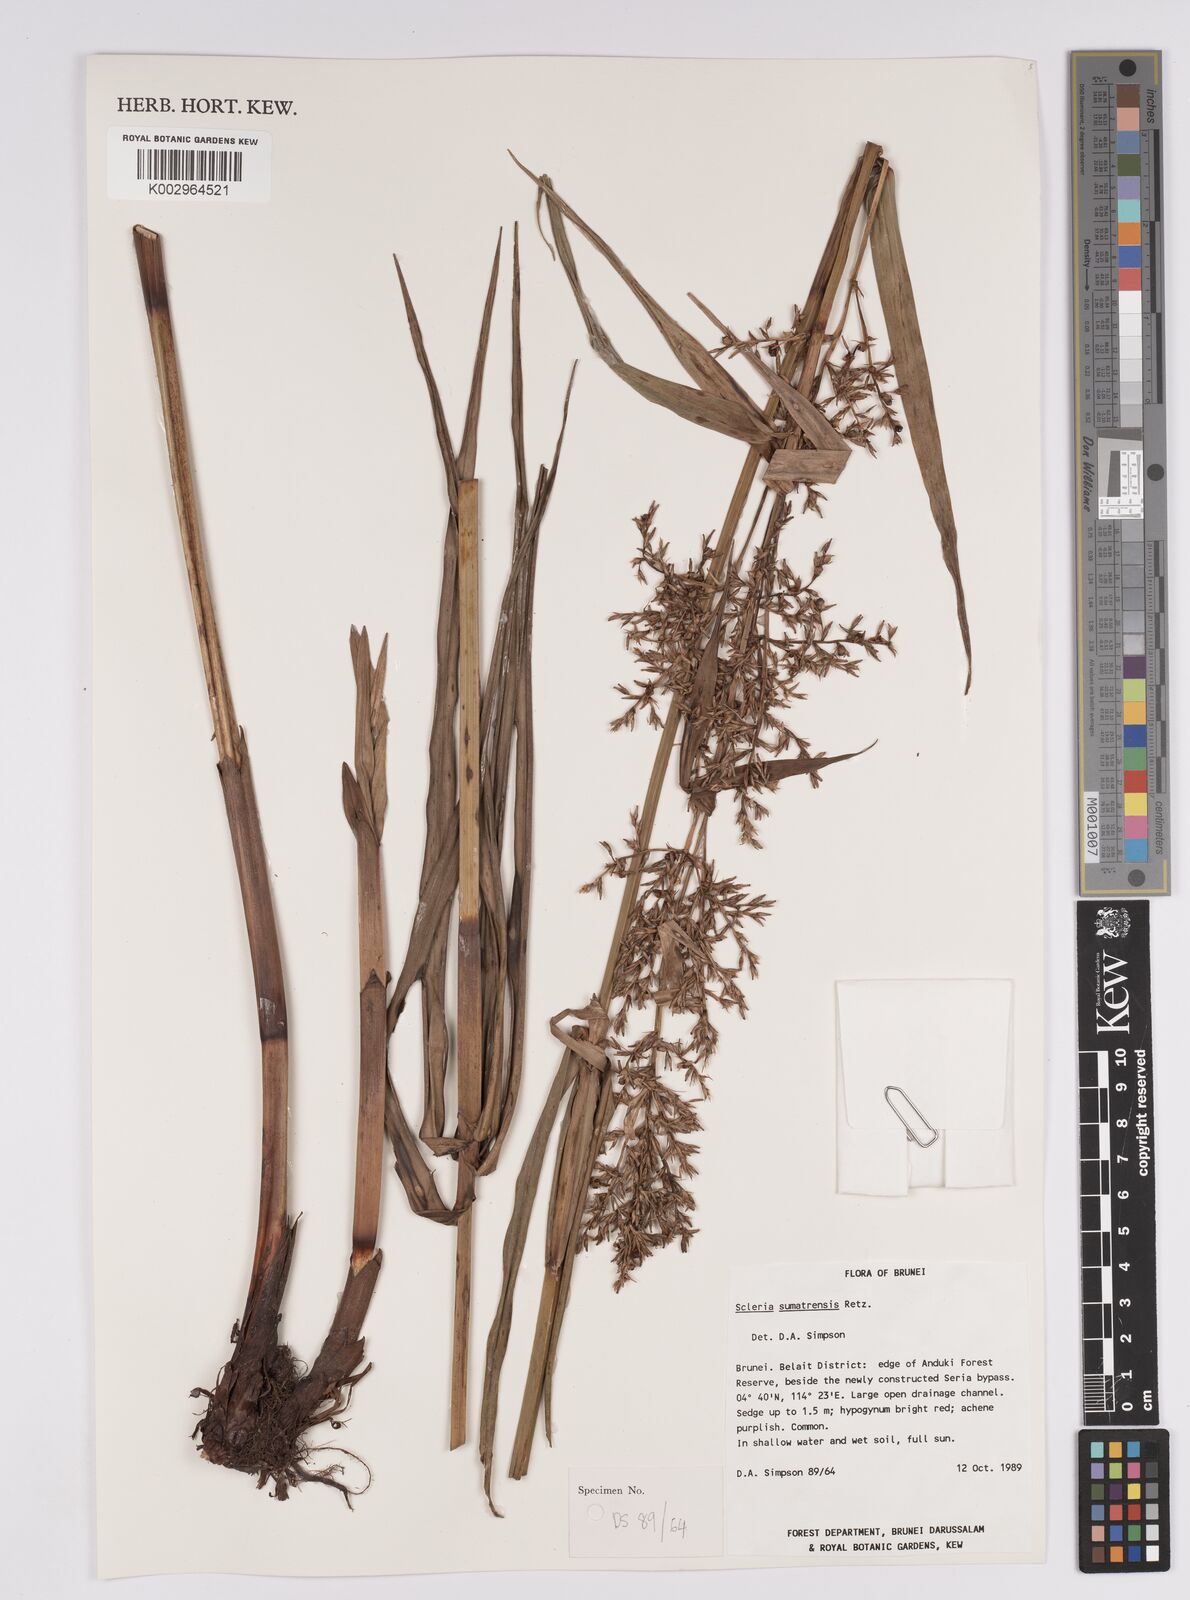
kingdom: Plantae
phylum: Tracheophyta
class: Liliopsida
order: Poales
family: Cyperaceae
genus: Scleria
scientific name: Scleria sumatrensis
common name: Sumatran scleria
